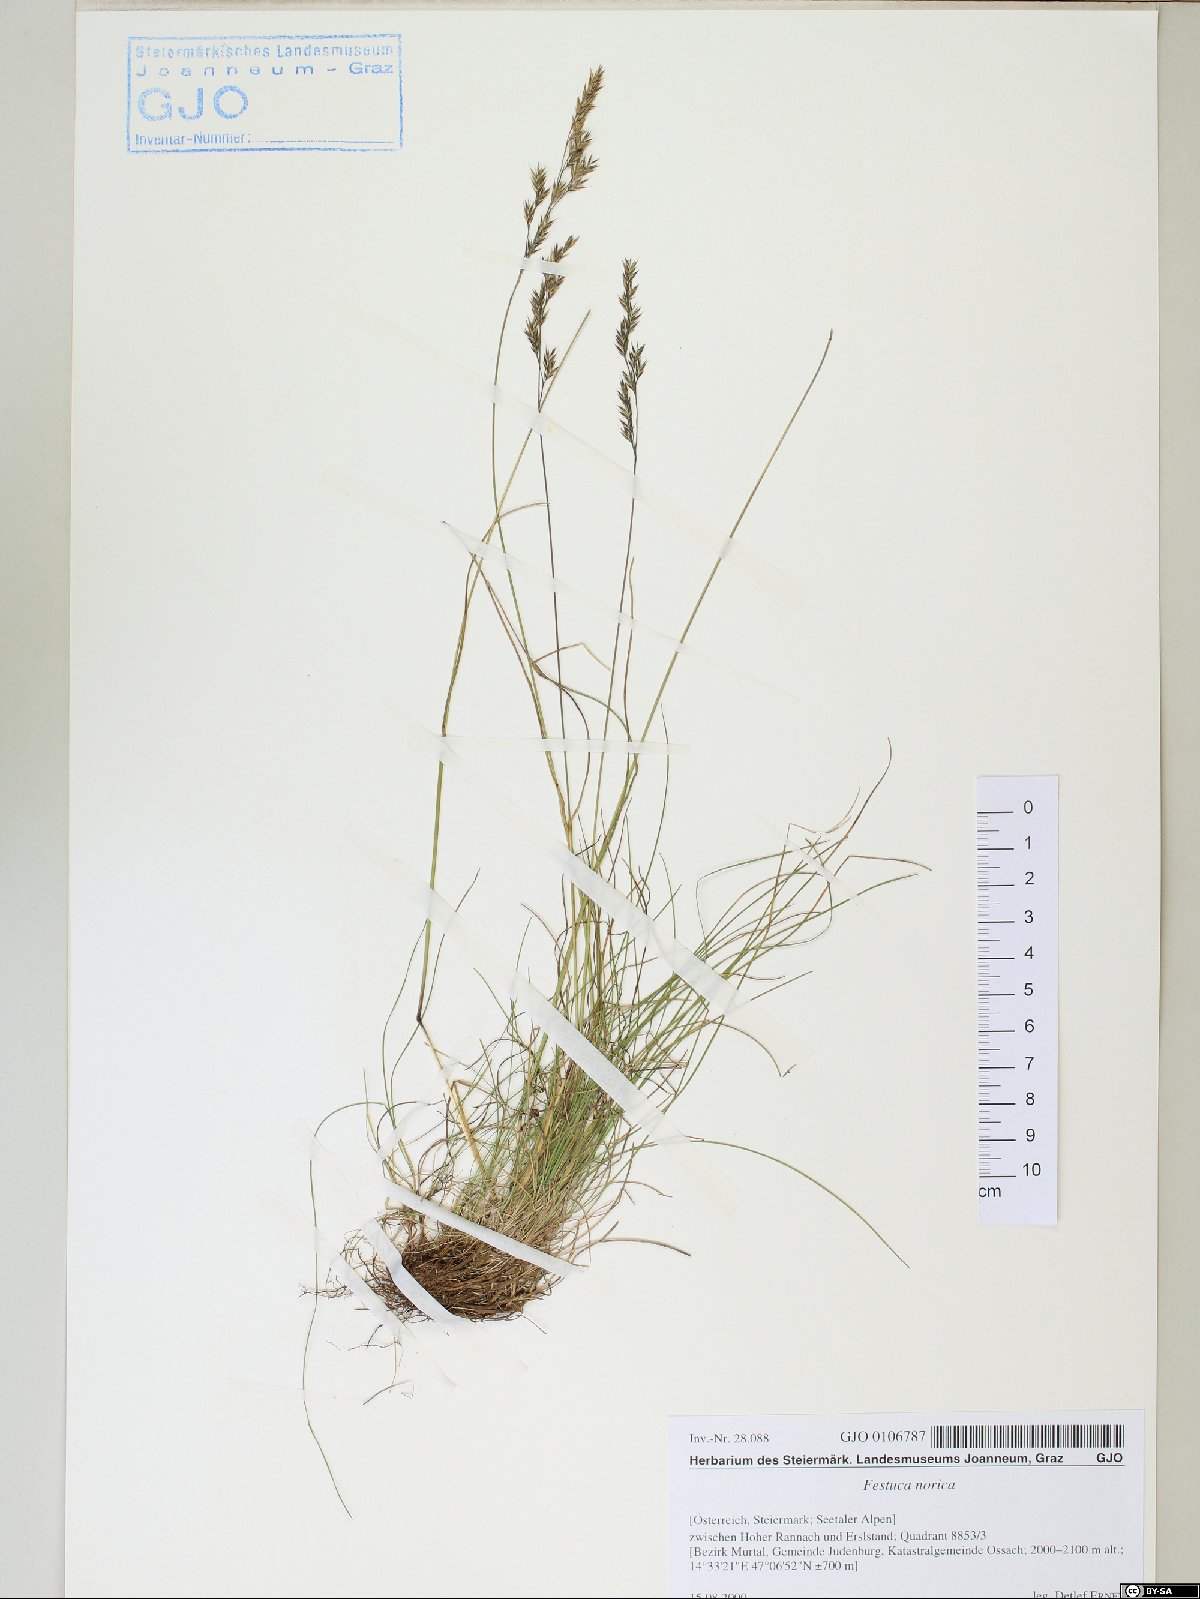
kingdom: Plantae
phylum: Tracheophyta
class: Liliopsida
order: Poales
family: Poaceae
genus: Festuca
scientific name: Festuca norica
